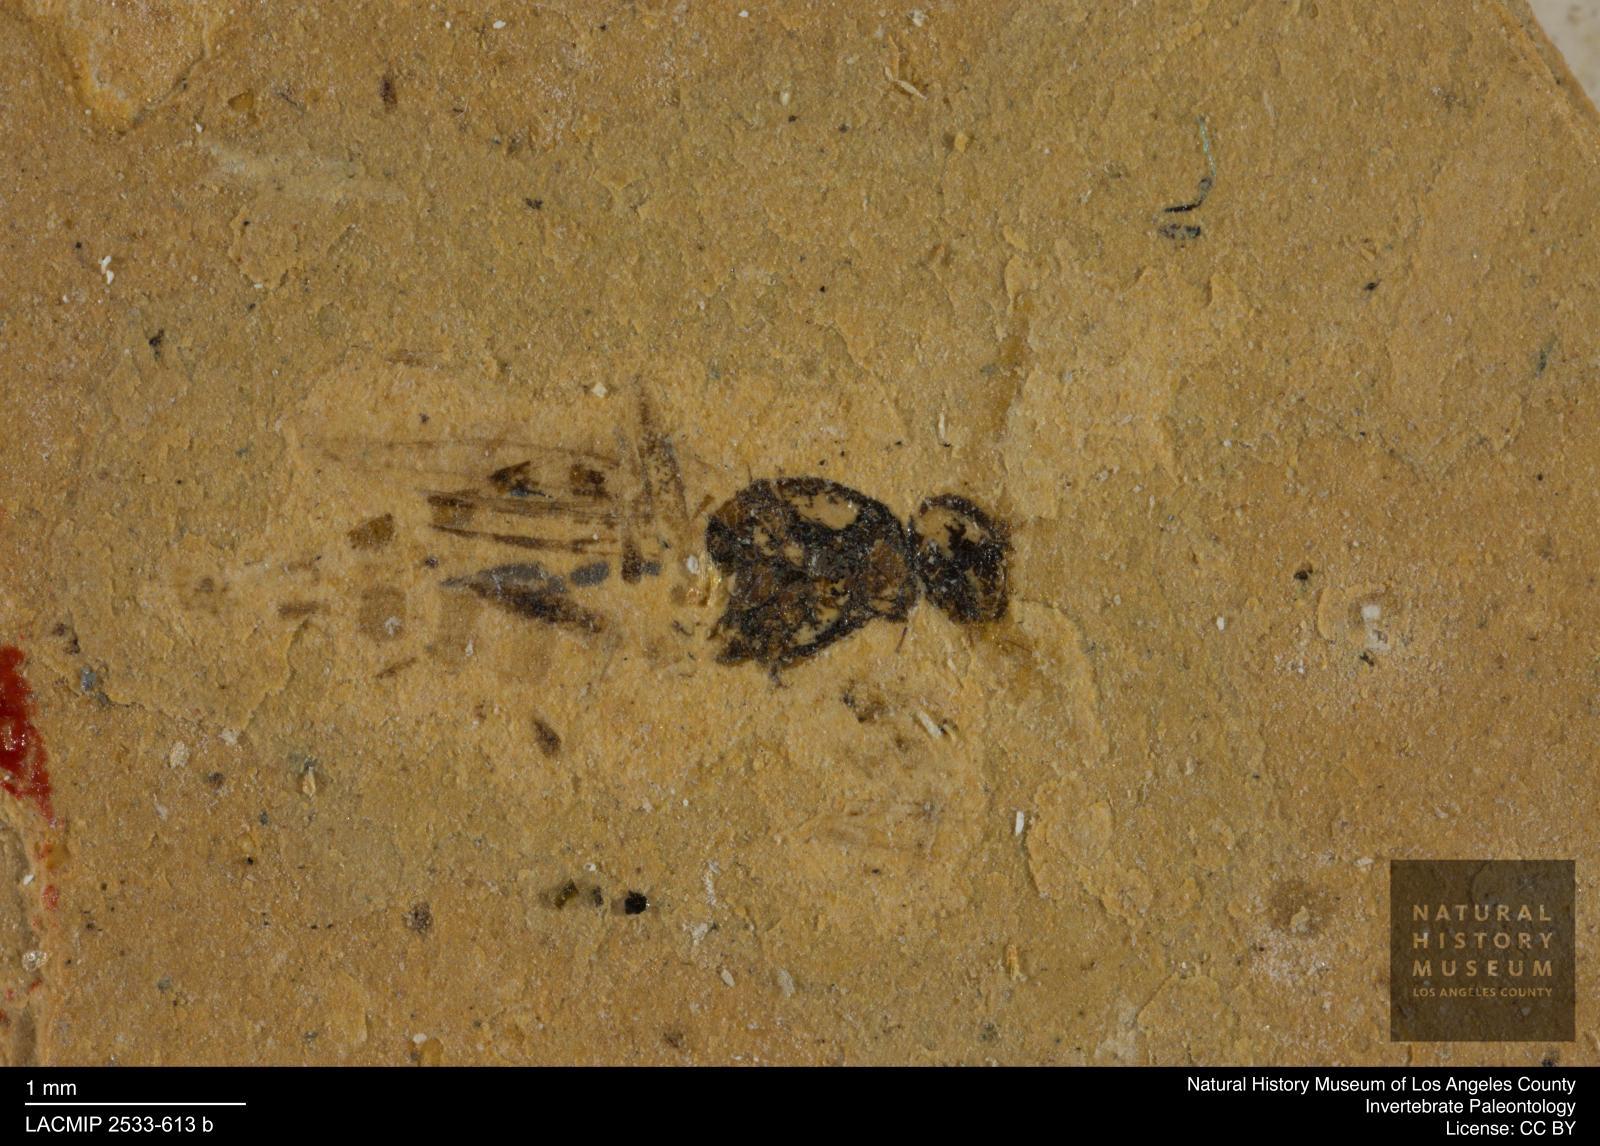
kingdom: Animalia
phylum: Arthropoda
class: Insecta
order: Diptera
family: Sepsidae
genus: Sepsis
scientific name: Sepsis ignobilis
